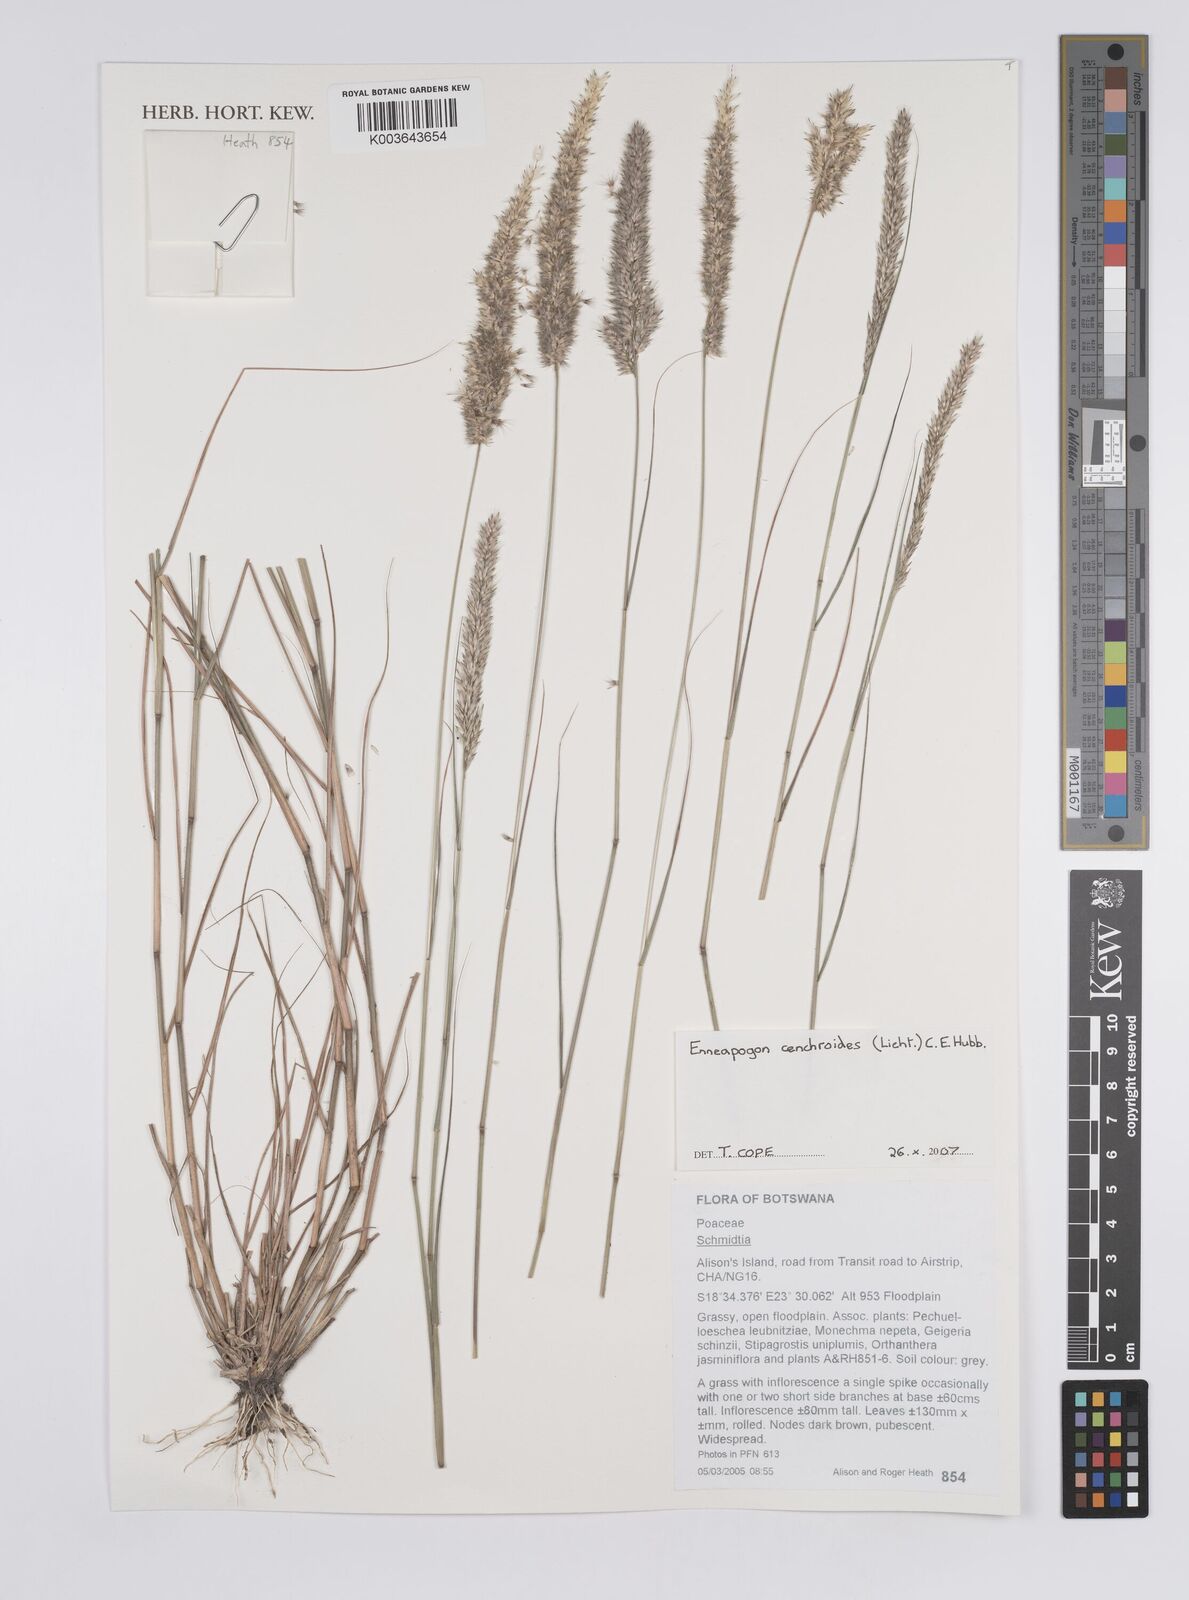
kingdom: Plantae
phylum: Tracheophyta
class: Liliopsida
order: Poales
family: Poaceae
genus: Enneapogon
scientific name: Enneapogon cenchroides
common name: Soft feather pappusgrass
